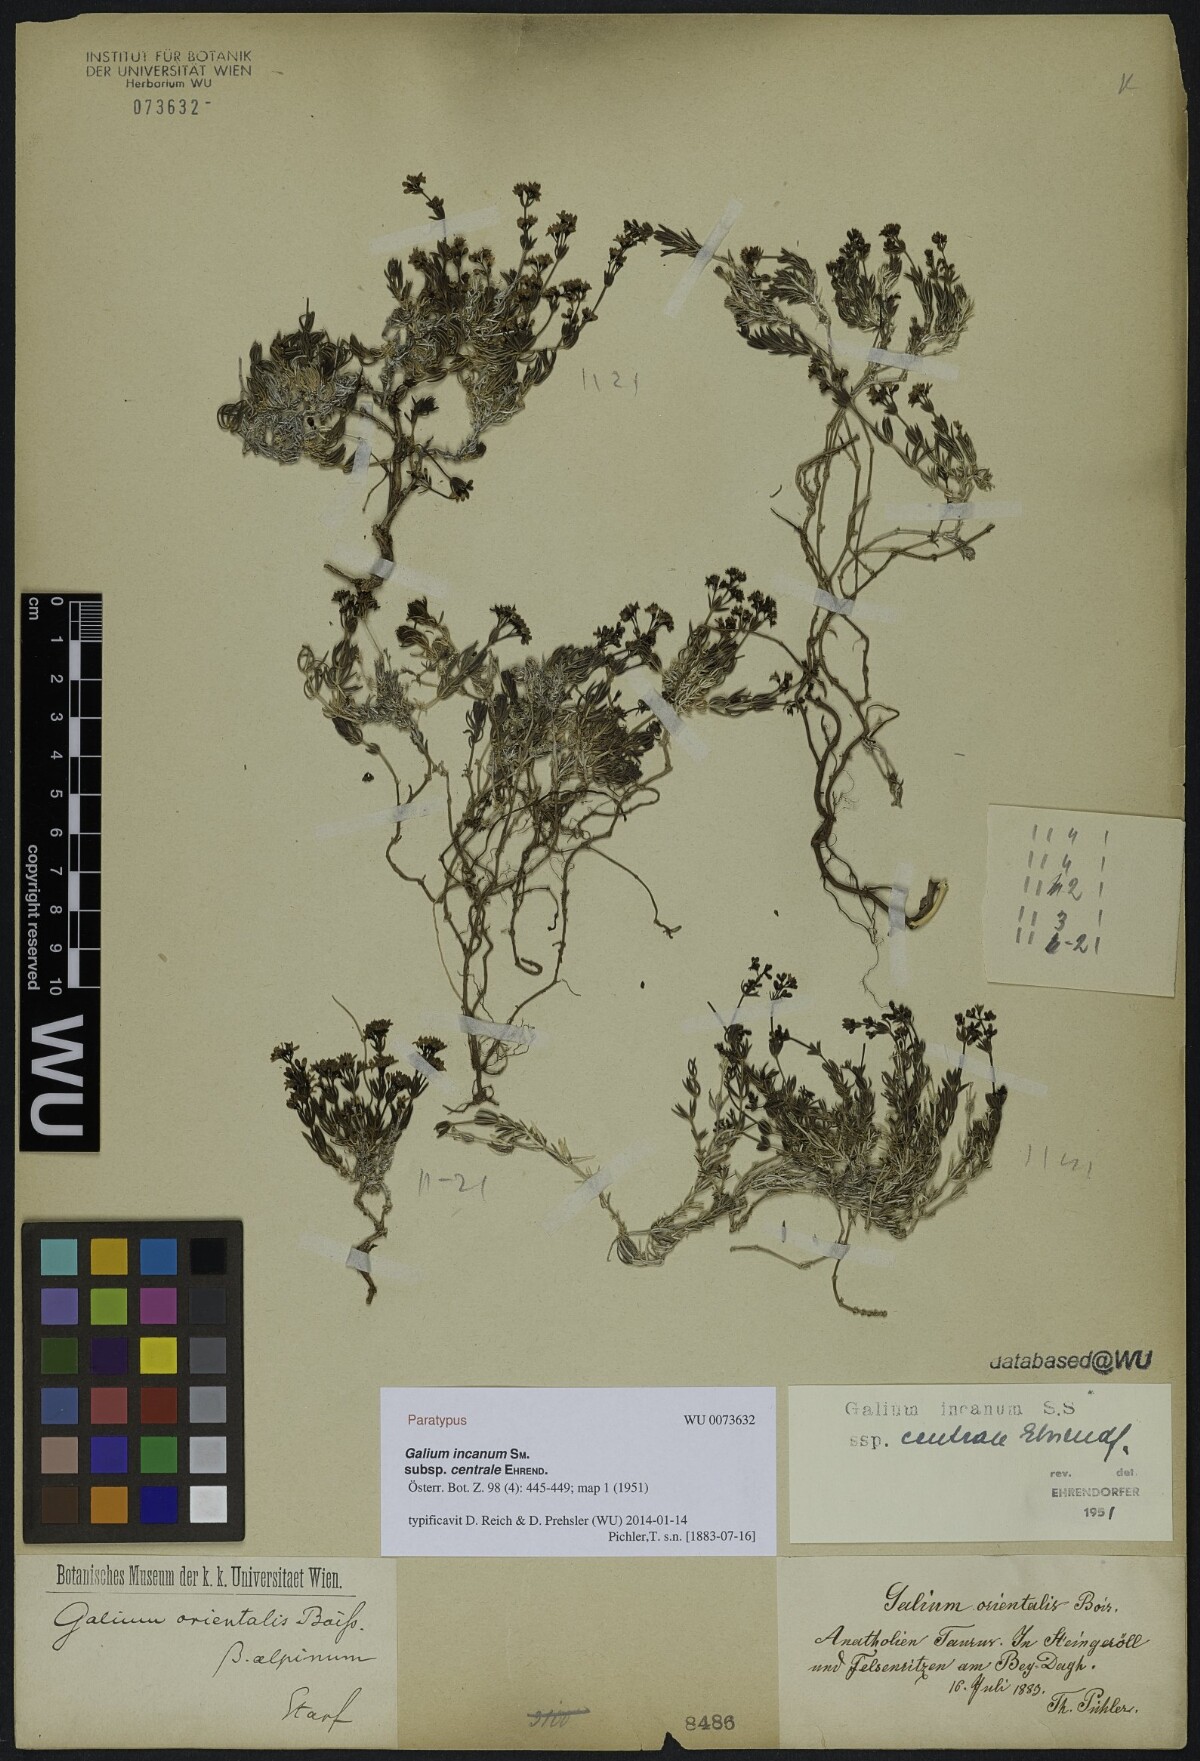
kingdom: Plantae
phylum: Tracheophyta
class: Magnoliopsida
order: Gentianales
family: Rubiaceae
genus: Galium
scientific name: Galium incanum
